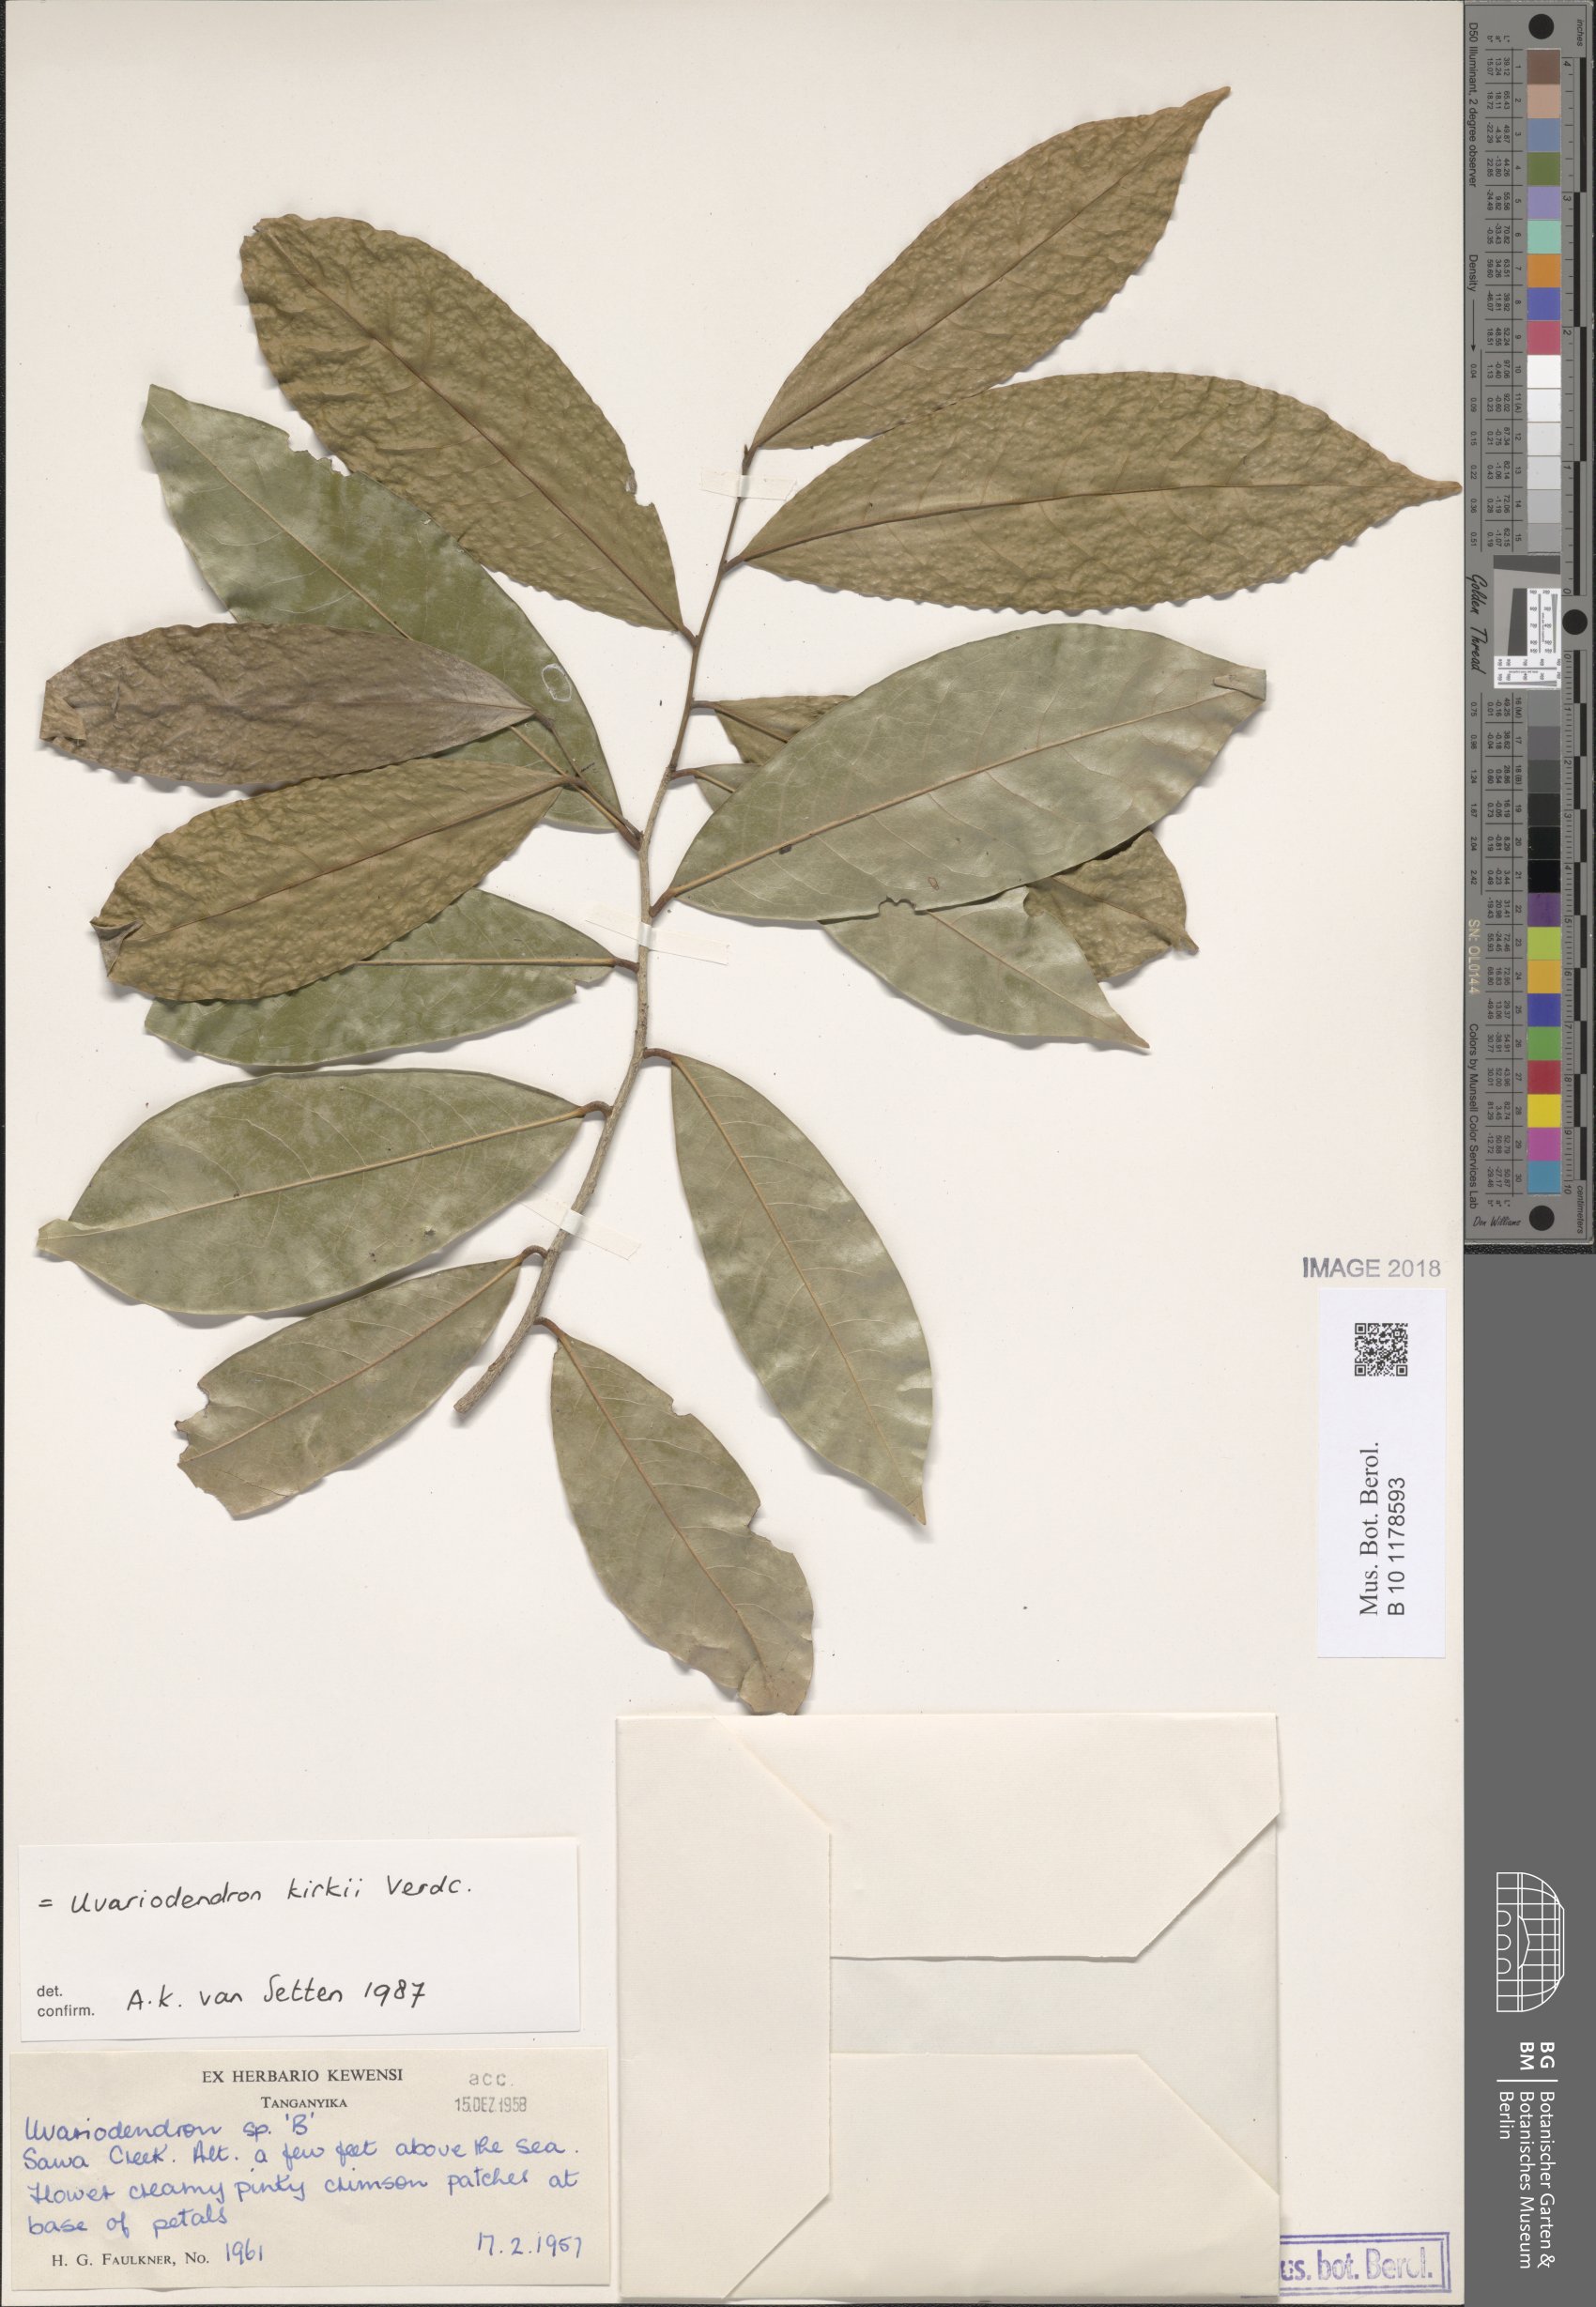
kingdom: Plantae
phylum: Tracheophyta
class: Magnoliopsida
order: Magnoliales
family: Annonaceae
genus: Uvariodendron
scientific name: Uvariodendron kirkii
